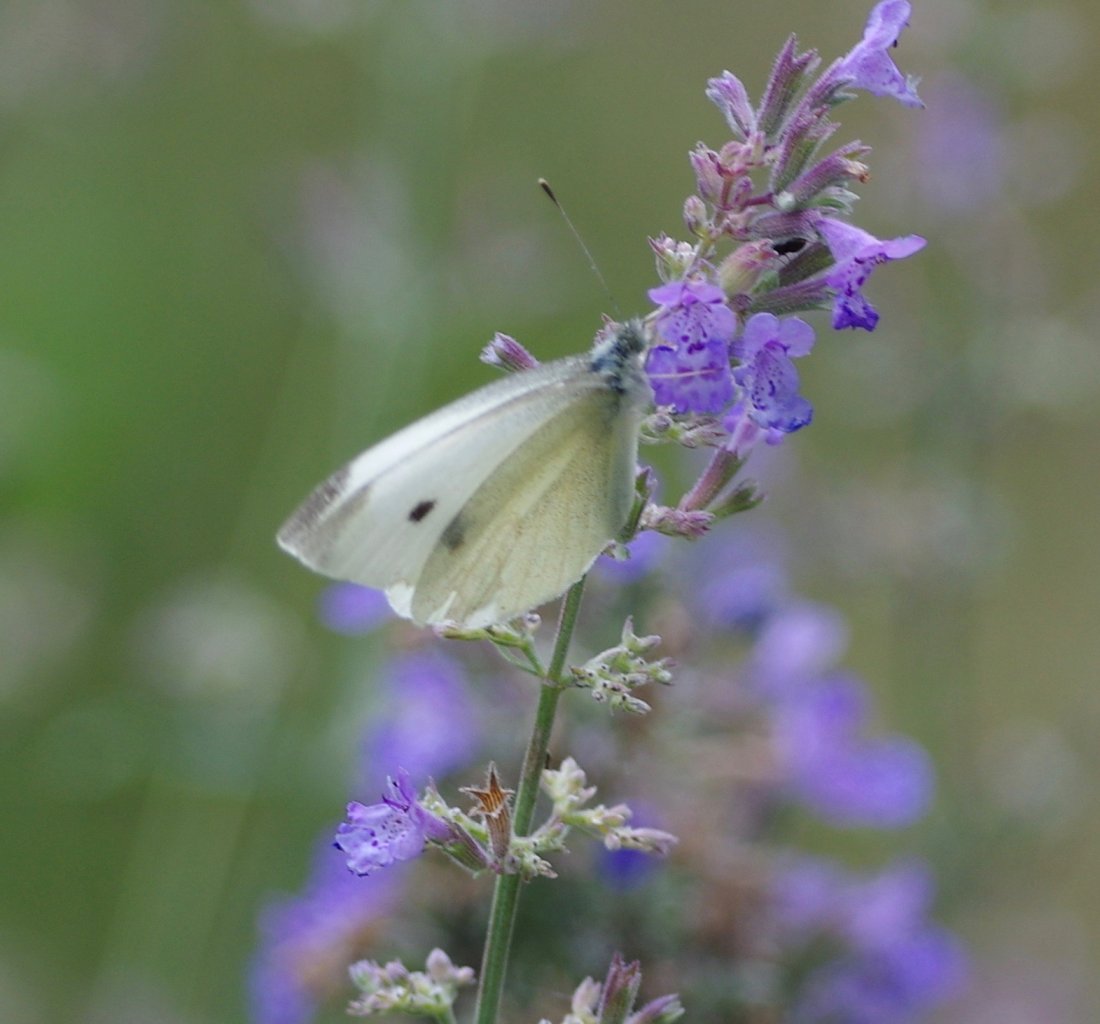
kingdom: Animalia
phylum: Arthropoda
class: Insecta
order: Lepidoptera
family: Pieridae
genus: Pieris
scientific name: Pieris rapae
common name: Cabbage White
